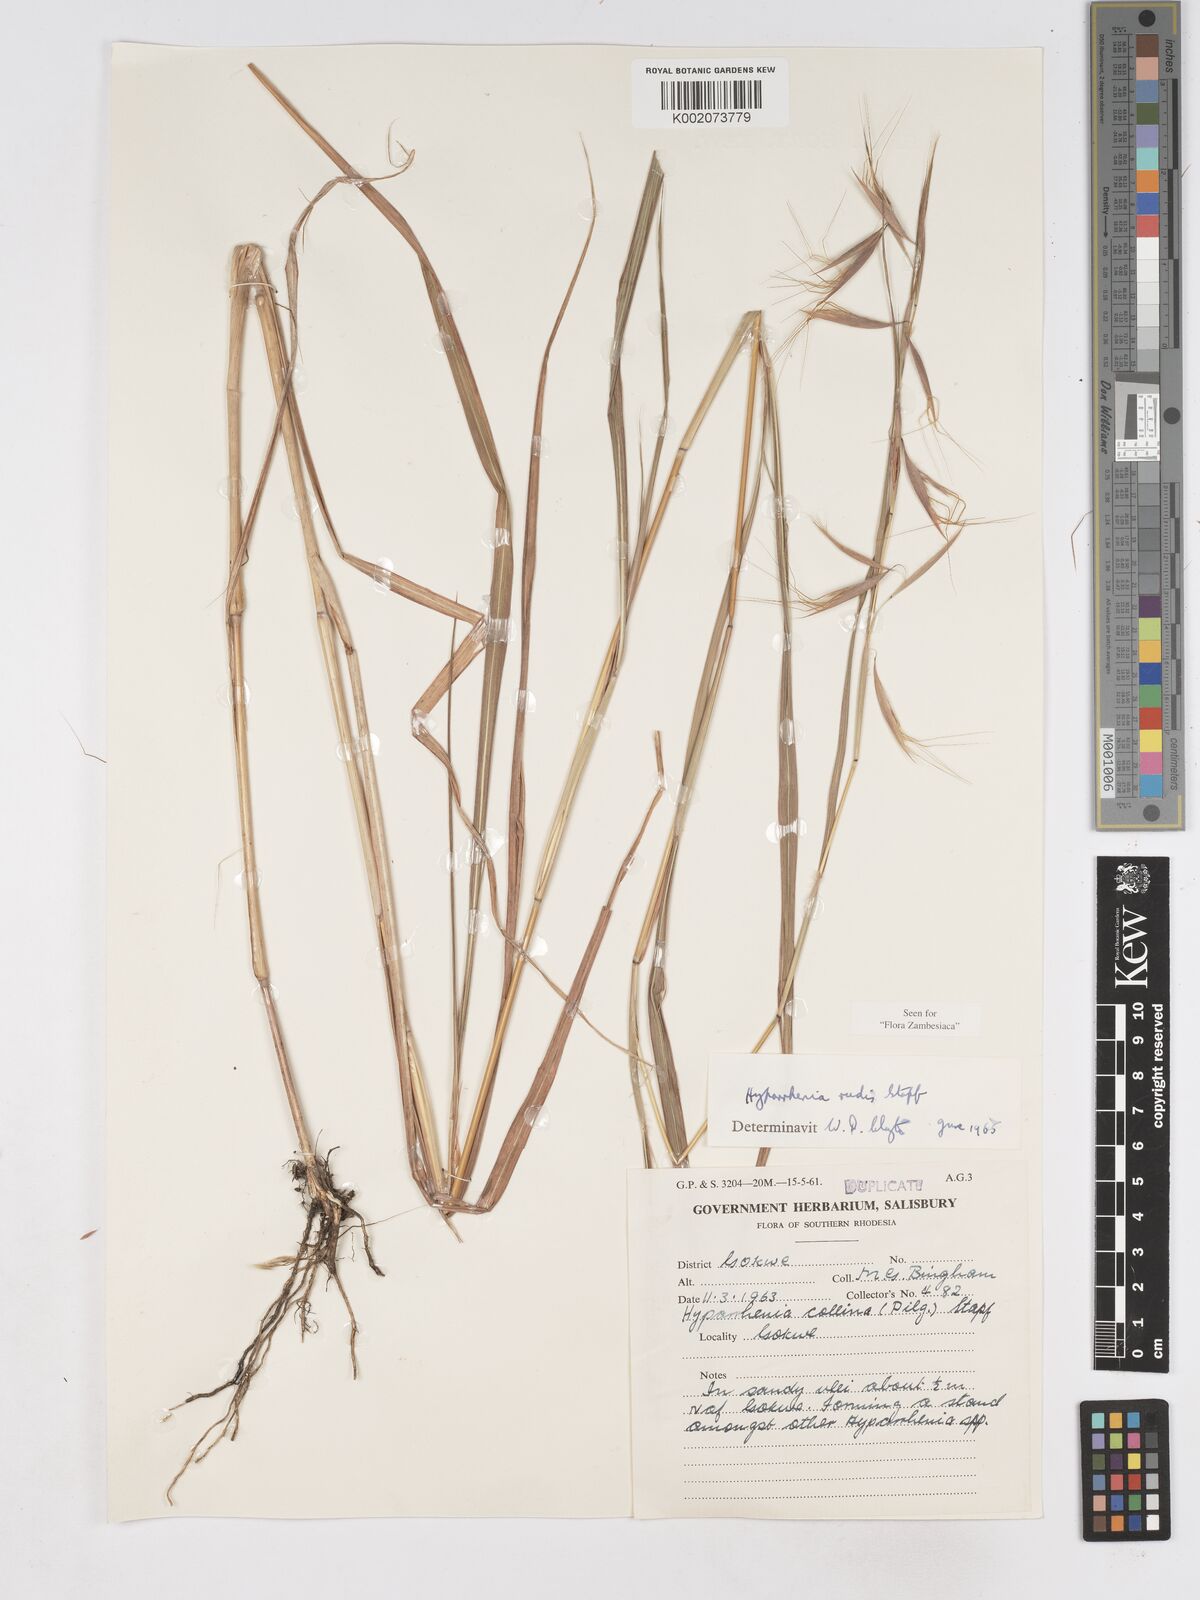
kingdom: Plantae
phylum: Tracheophyta
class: Liliopsida
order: Poales
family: Poaceae
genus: Hyparrhenia
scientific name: Hyparrhenia rudis
